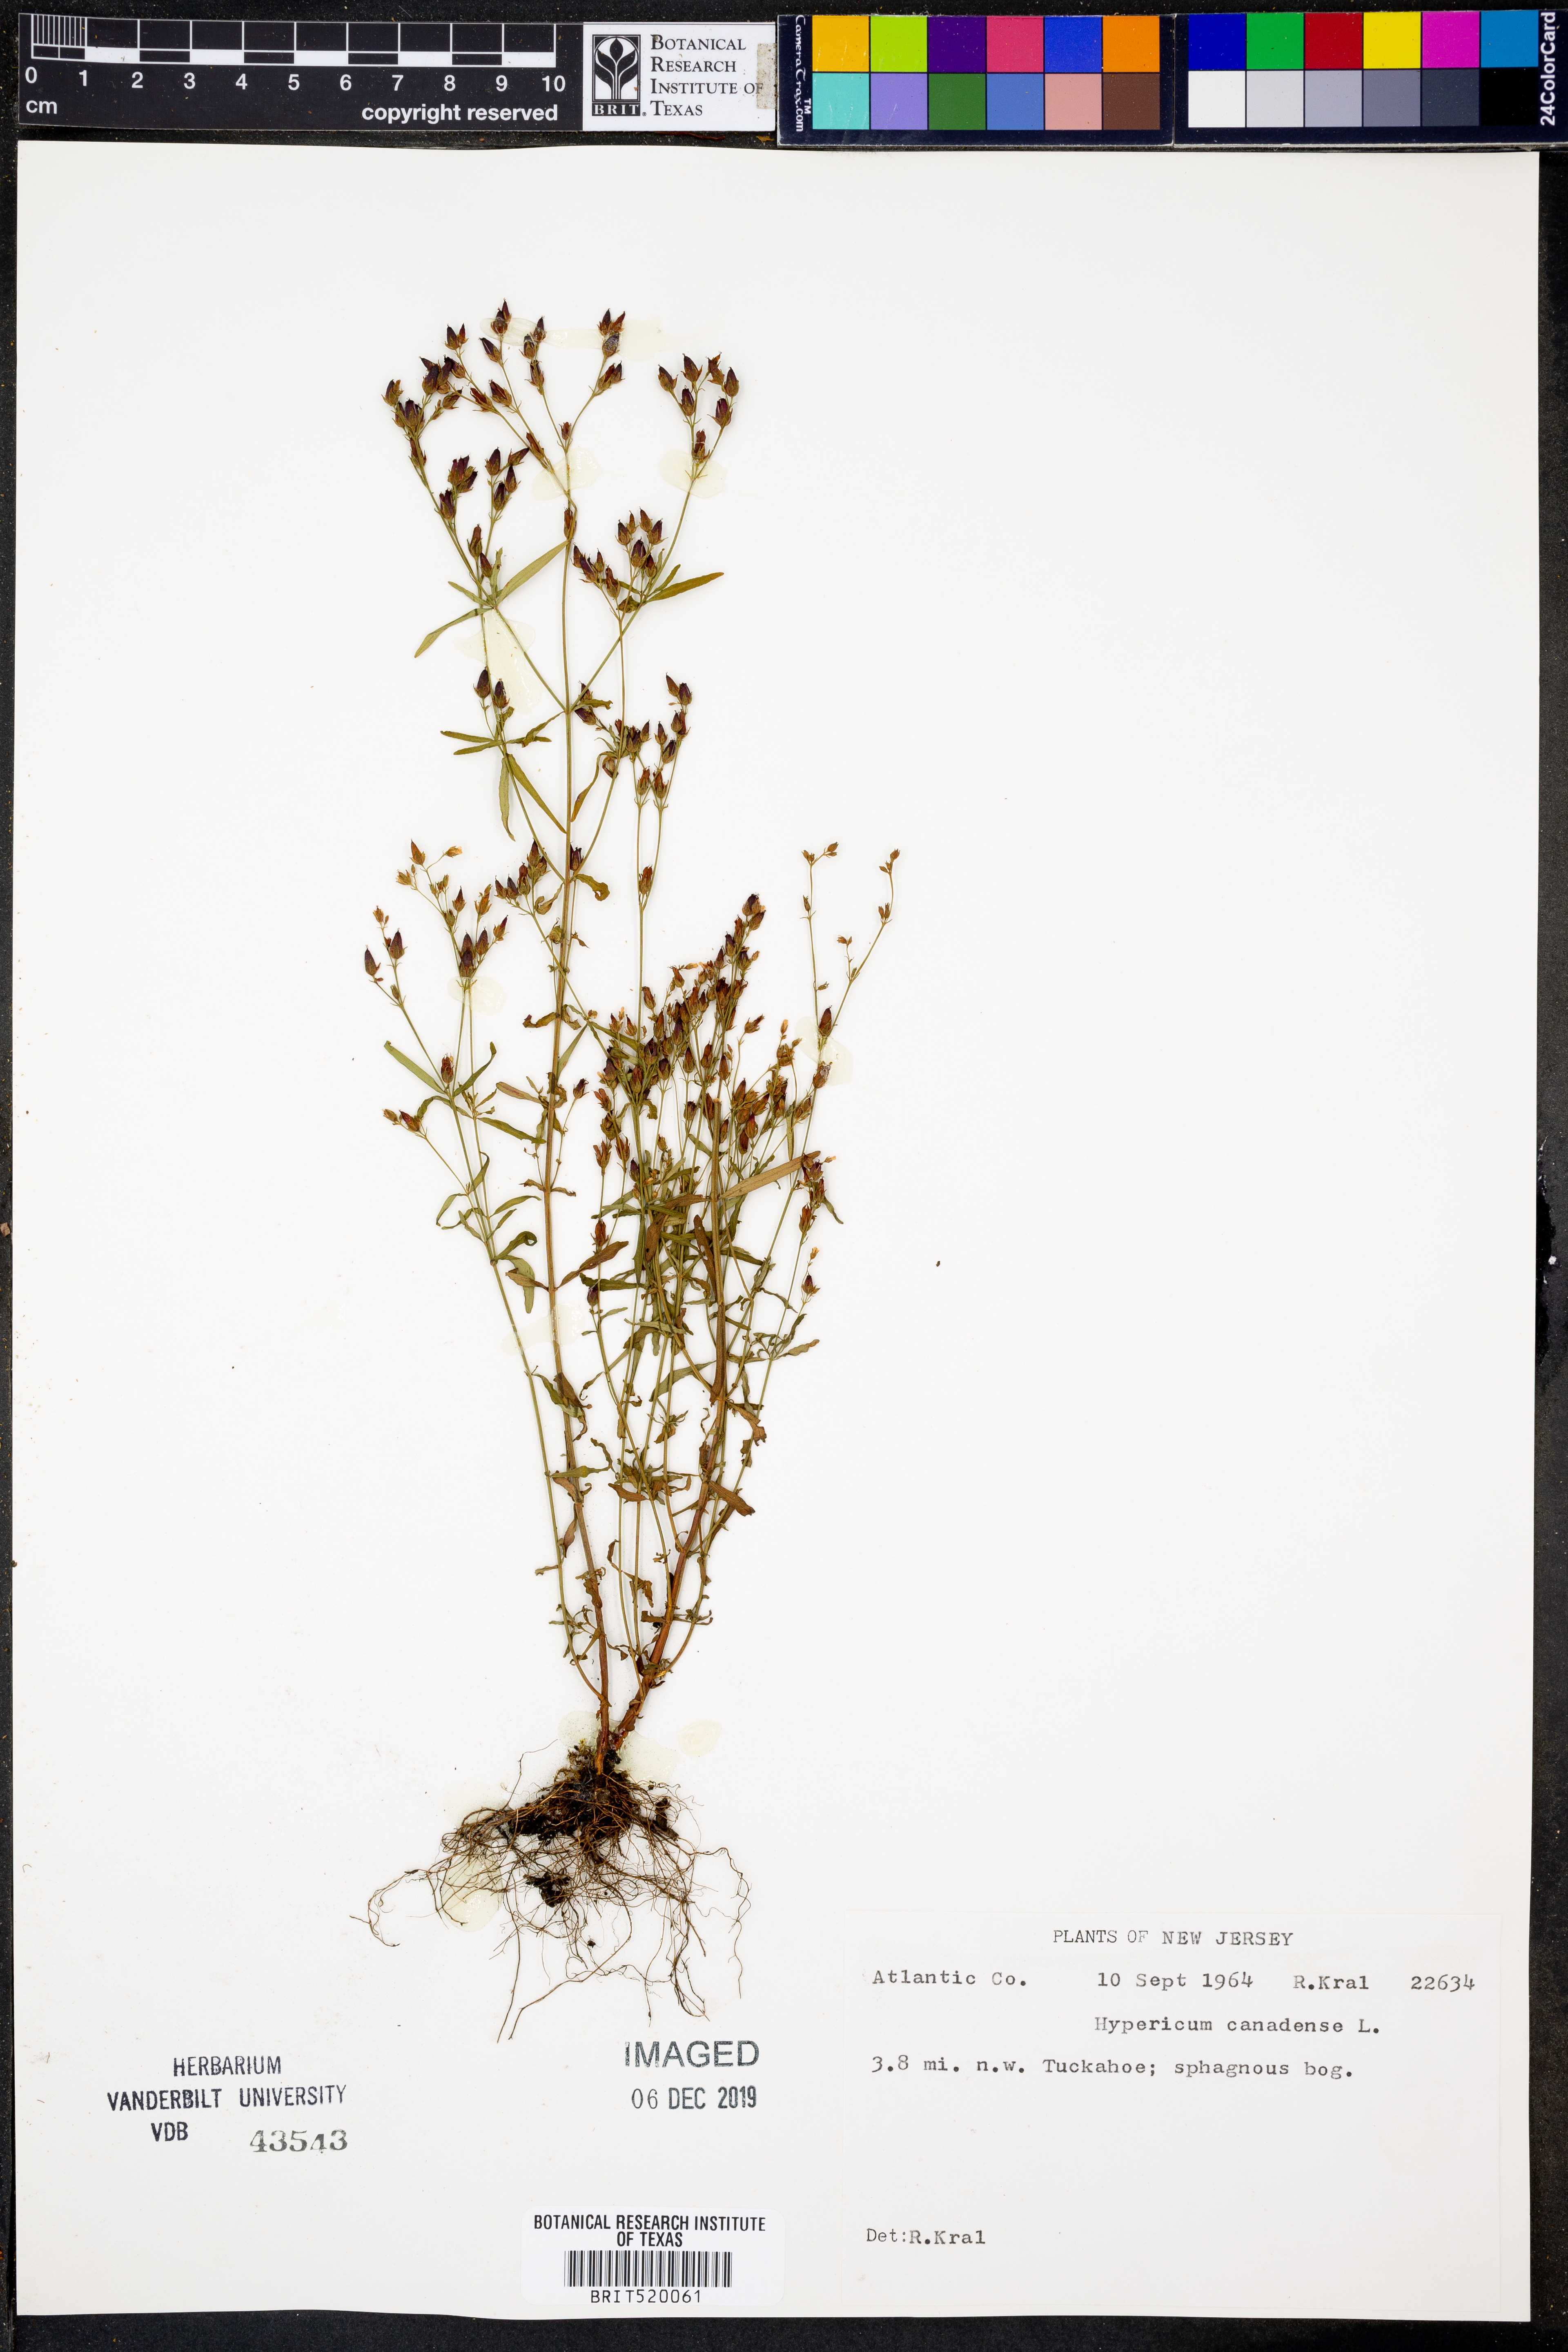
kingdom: Plantae
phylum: Tracheophyta
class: Magnoliopsida
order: Malpighiales
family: Hypericaceae
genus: Hypericum
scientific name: Hypericum canadense
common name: Irish st. john's-wort
